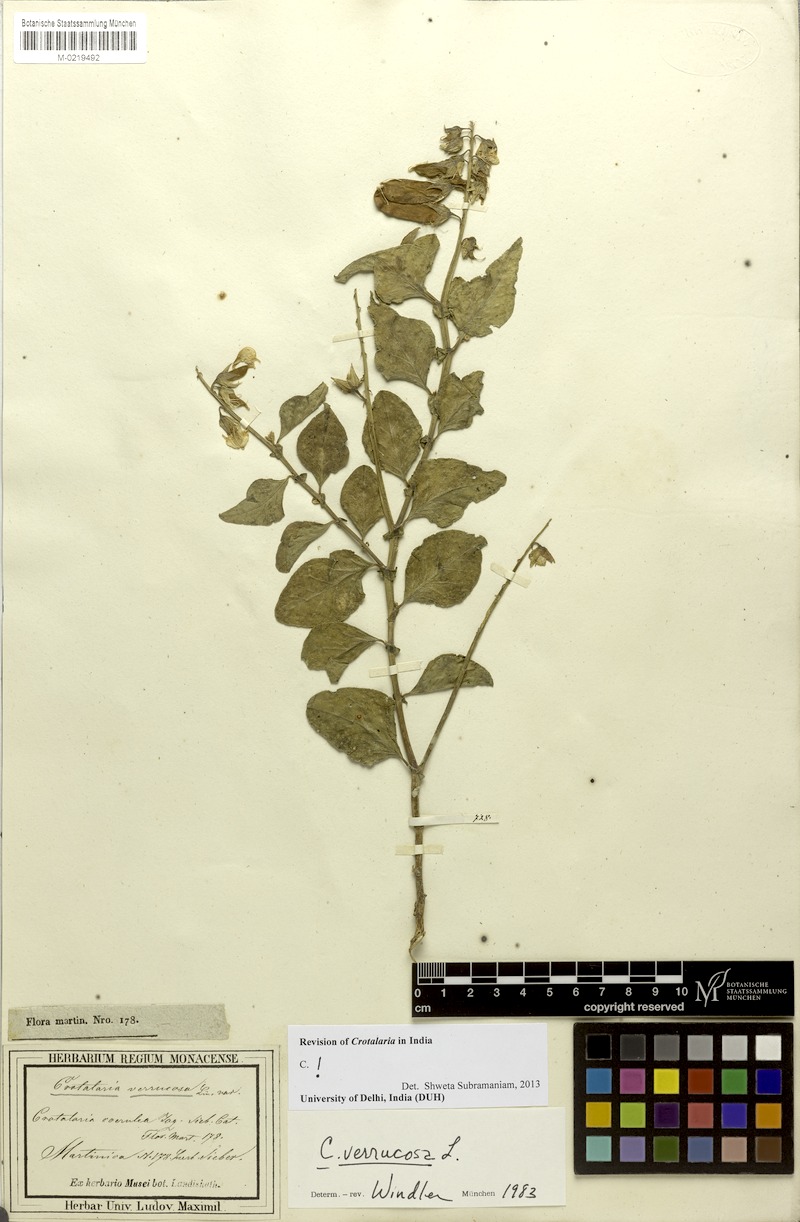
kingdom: Plantae
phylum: Tracheophyta
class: Magnoliopsida
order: Fabales
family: Fabaceae
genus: Crotalaria
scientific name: Crotalaria verrucosa
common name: Blue rattlesnake
